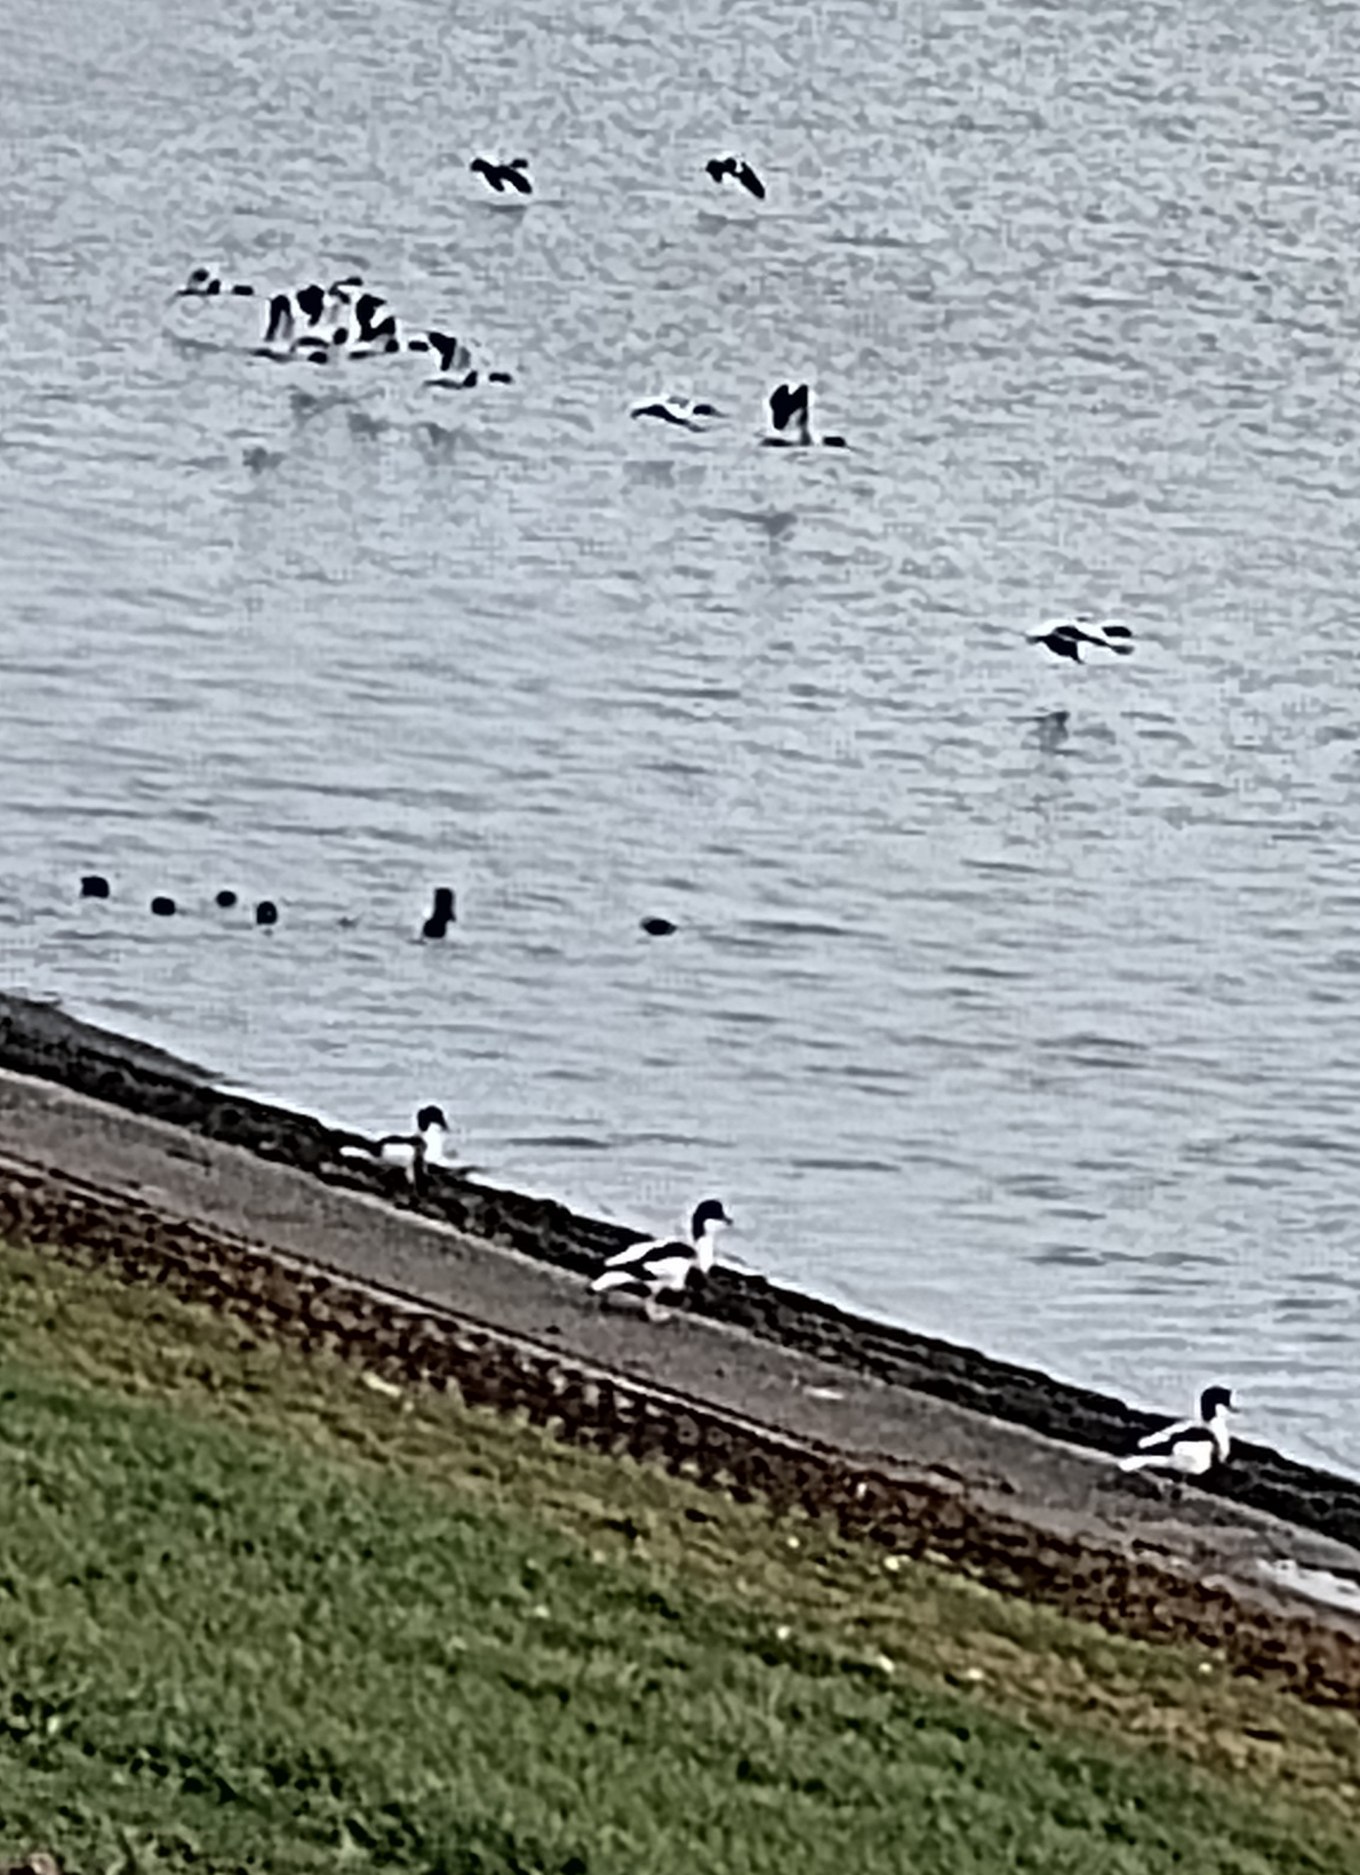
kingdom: Animalia
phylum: Chordata
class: Aves
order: Anseriformes
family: Anatidae
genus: Tadorna
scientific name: Tadorna tadorna
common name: Gravand
